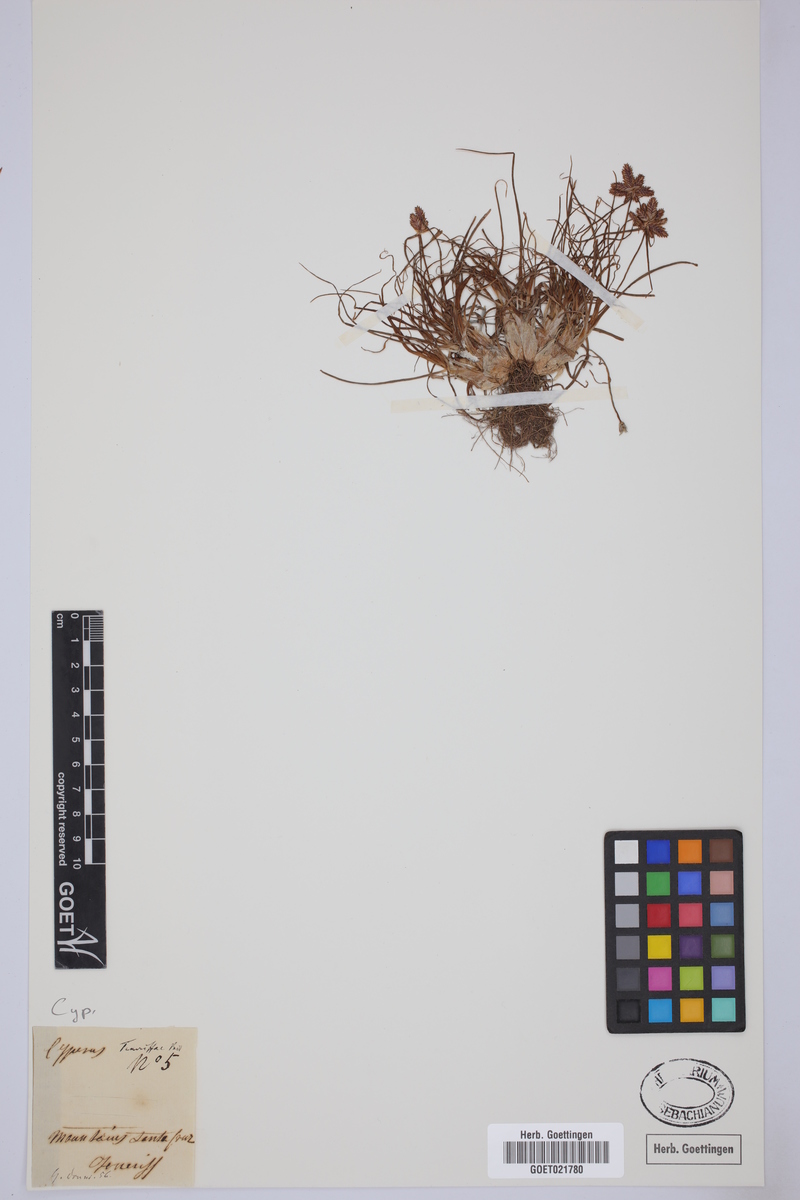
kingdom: Plantae
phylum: Tracheophyta
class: Liliopsida
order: Poales
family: Cyperaceae
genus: Cyperus
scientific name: Cyperus rubicundus
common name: Coco-grass
